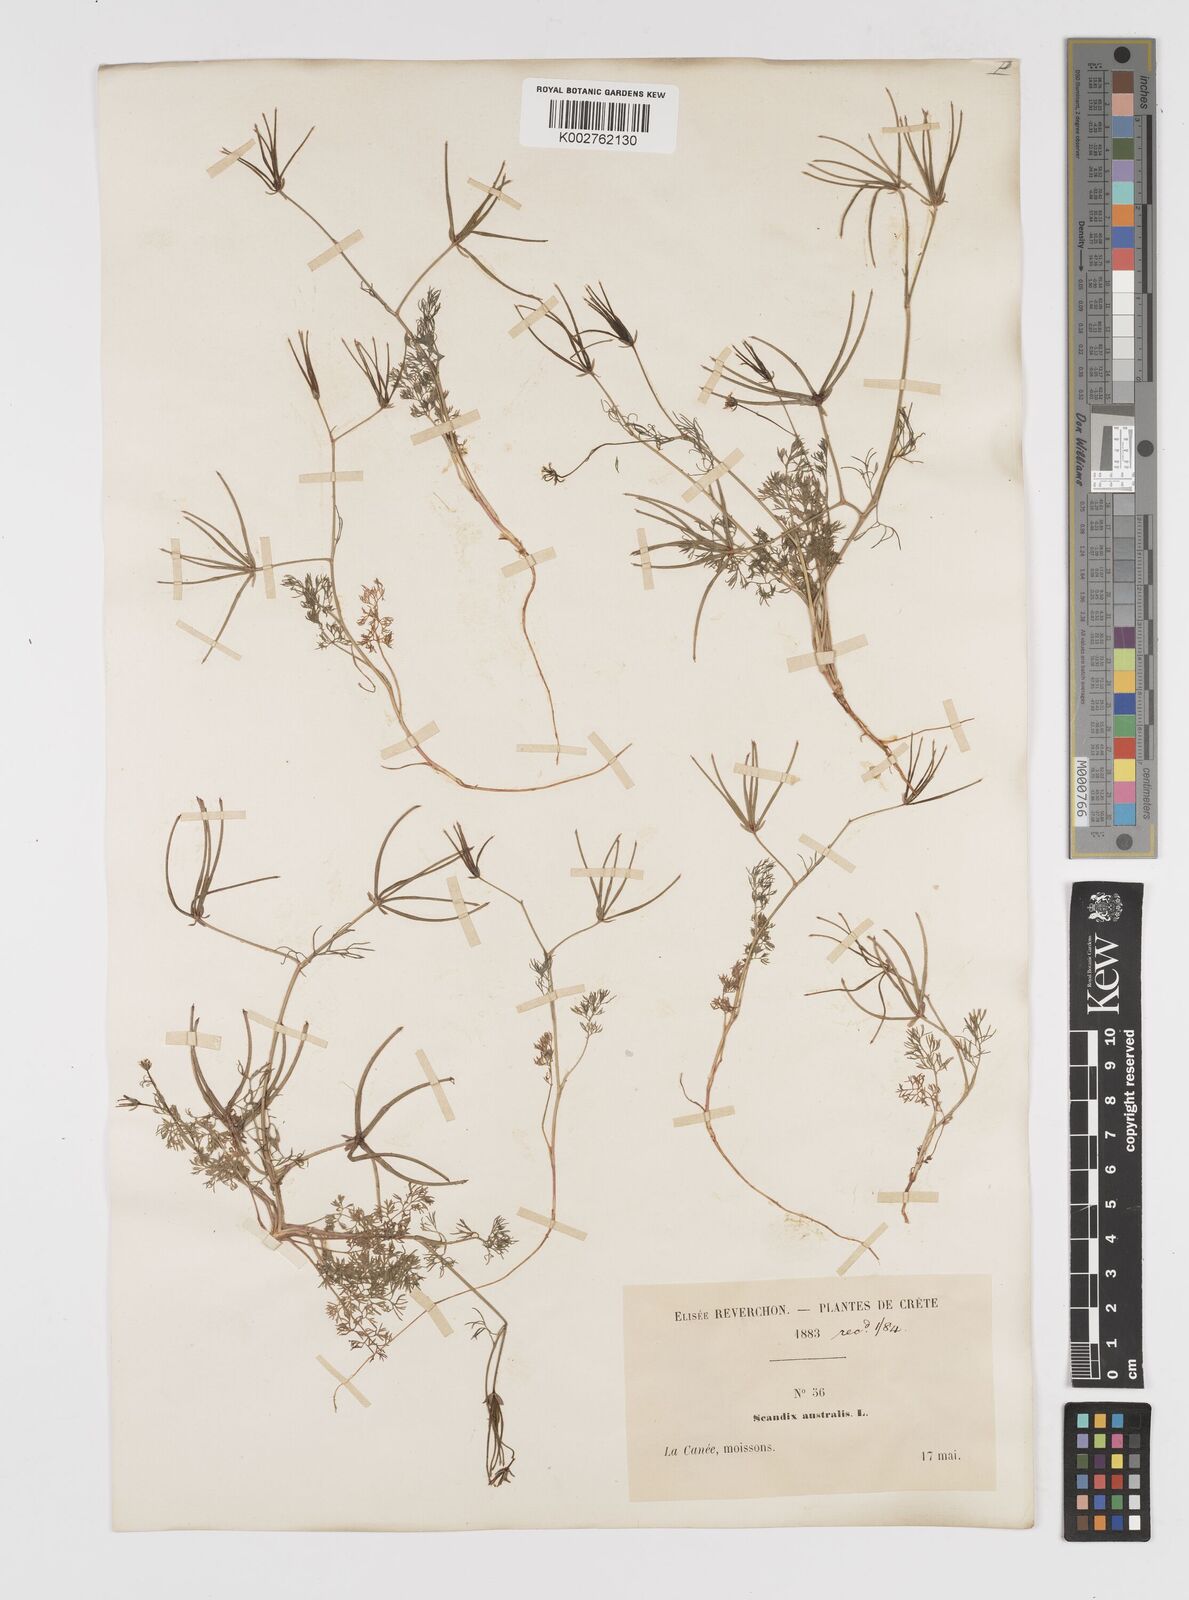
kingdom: Plantae
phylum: Tracheophyta
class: Magnoliopsida
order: Apiales
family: Apiaceae
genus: Scandix
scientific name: Scandix australis
